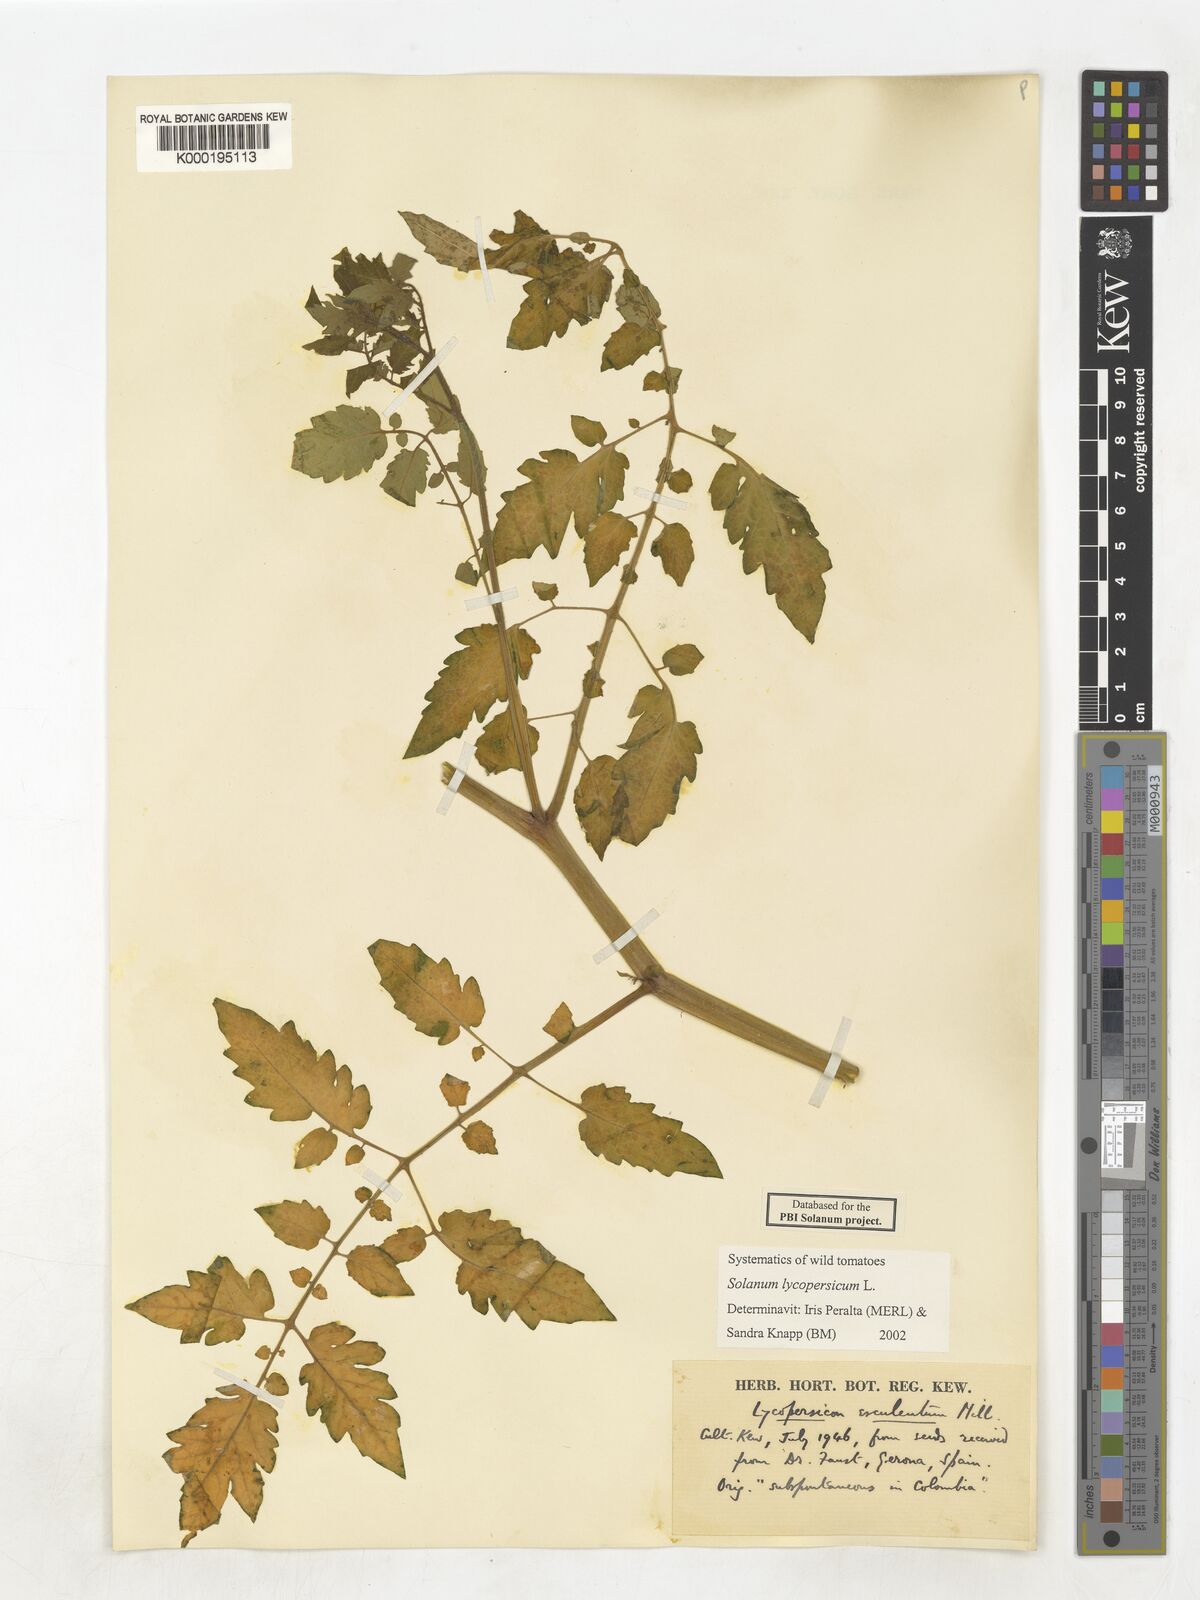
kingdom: Plantae
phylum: Tracheophyta
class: Magnoliopsida
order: Solanales
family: Solanaceae
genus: Solanum
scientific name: Solanum lycopersicum
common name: Garden tomato
